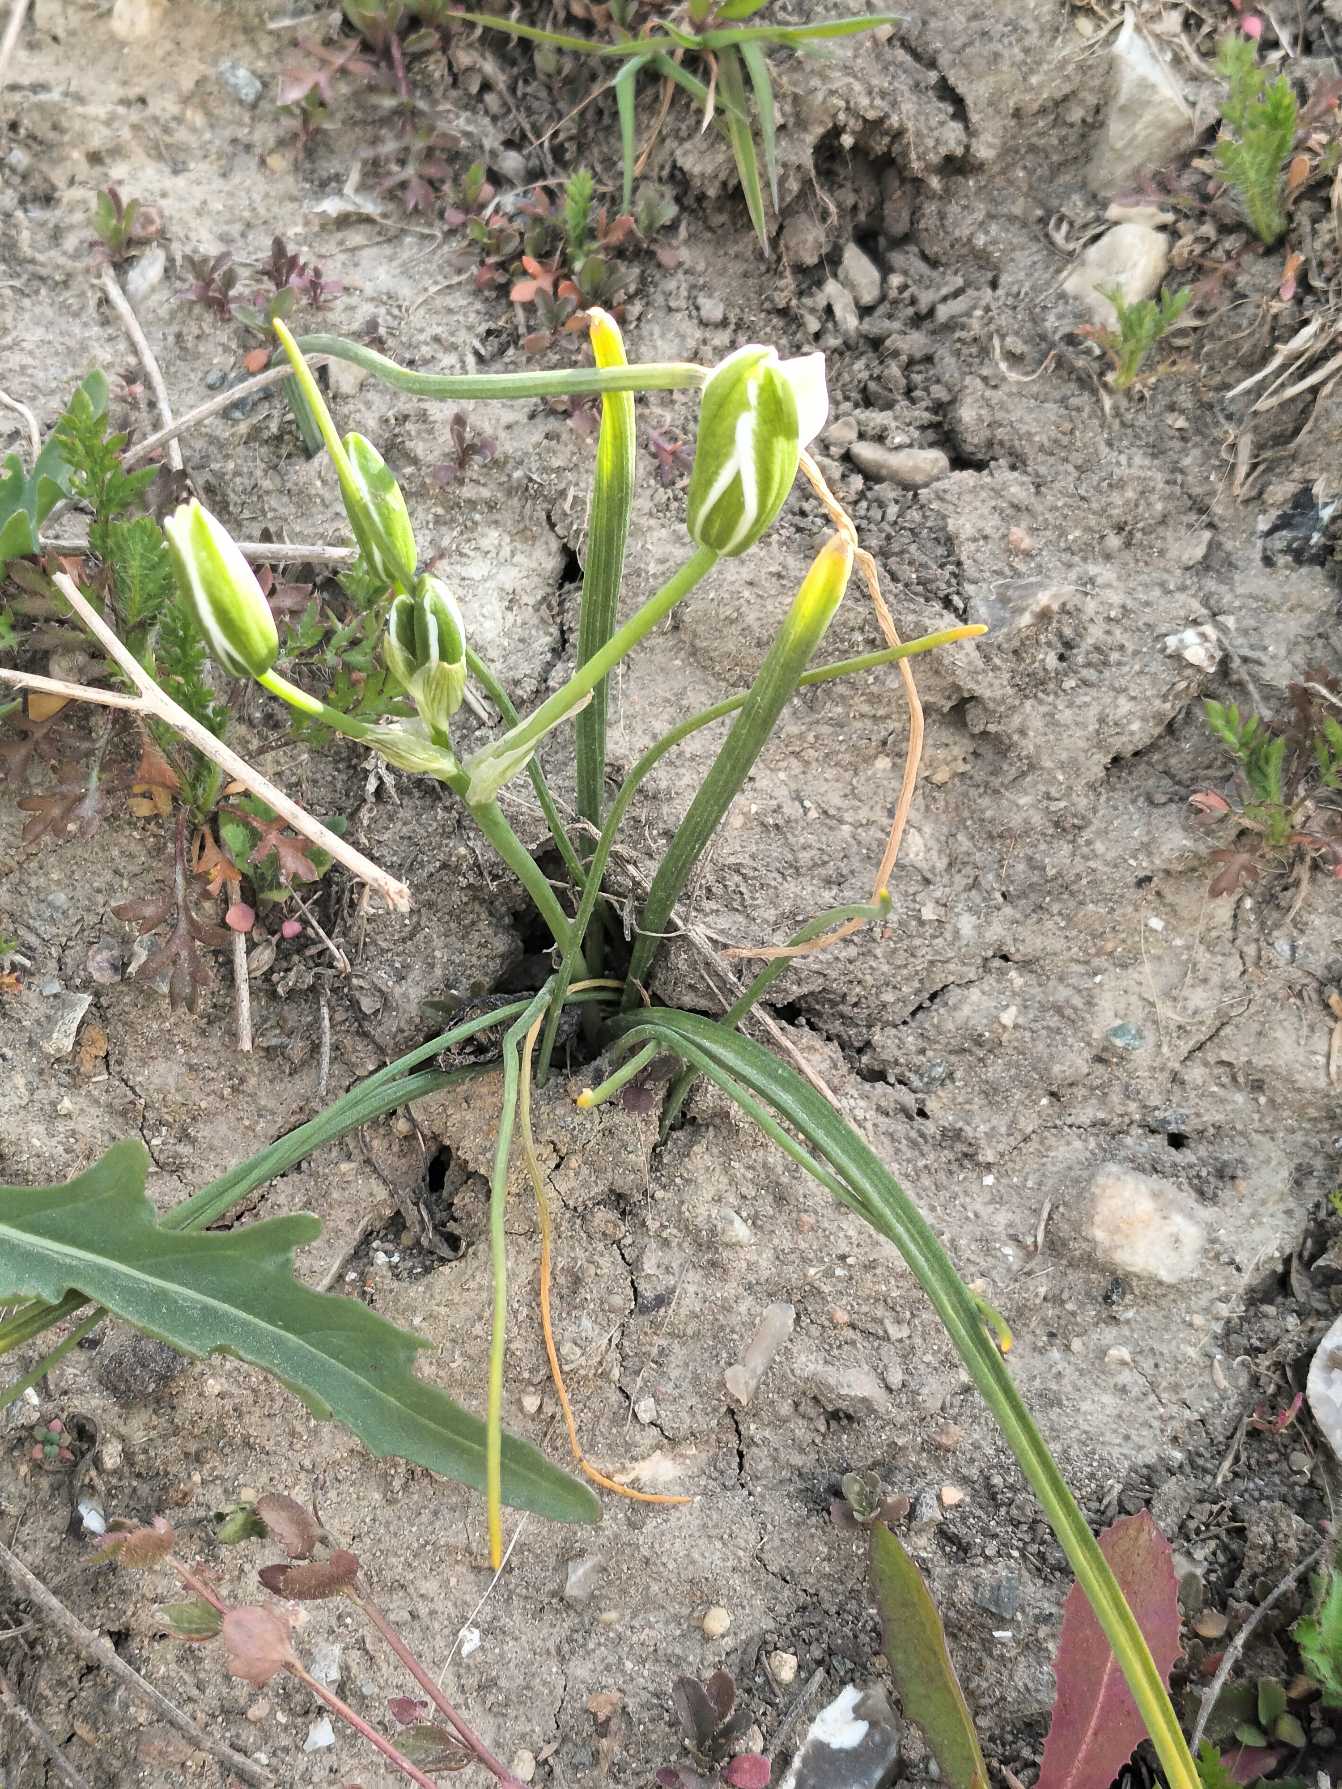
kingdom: Plantae
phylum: Tracheophyta
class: Liliopsida
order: Asparagales
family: Asparagaceae
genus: Ornithogalum
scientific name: Ornithogalum divergens
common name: Udspærret fuglemælk
